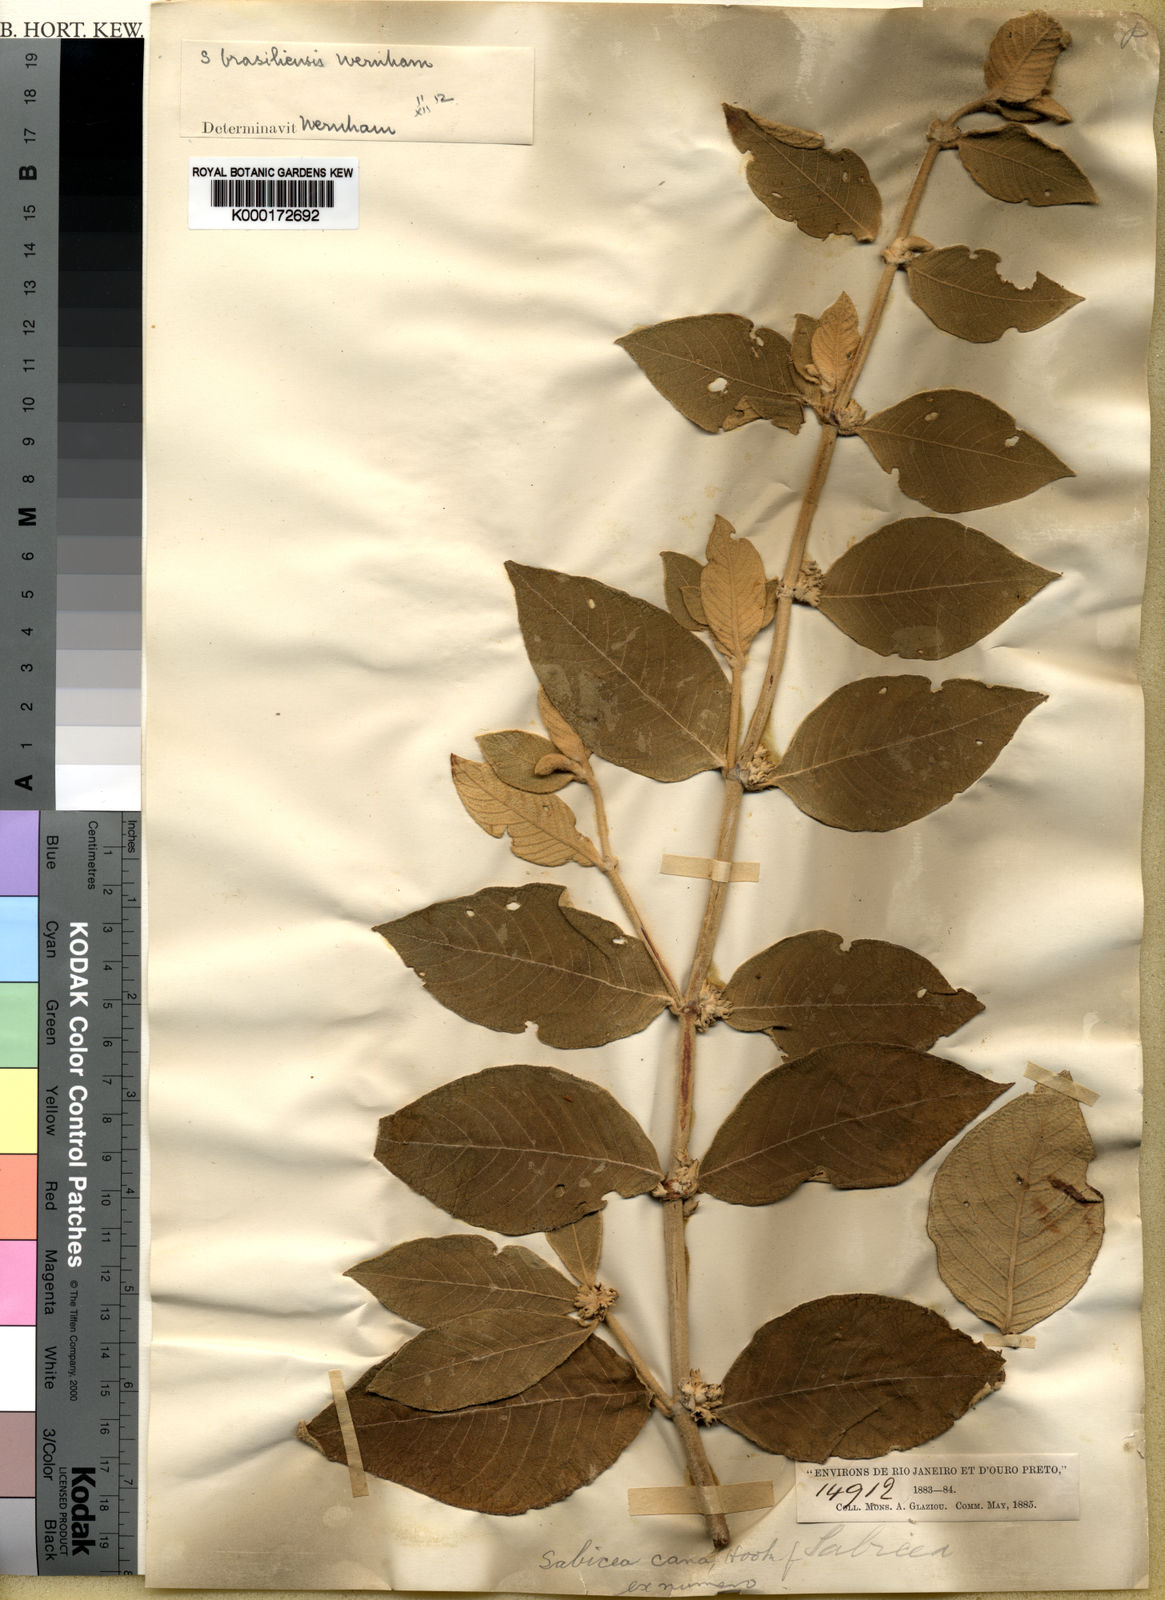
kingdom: Plantae
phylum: Tracheophyta
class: Magnoliopsida
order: Gentianales
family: Rubiaceae
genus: Sabicea
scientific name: Sabicea brasiliensis
